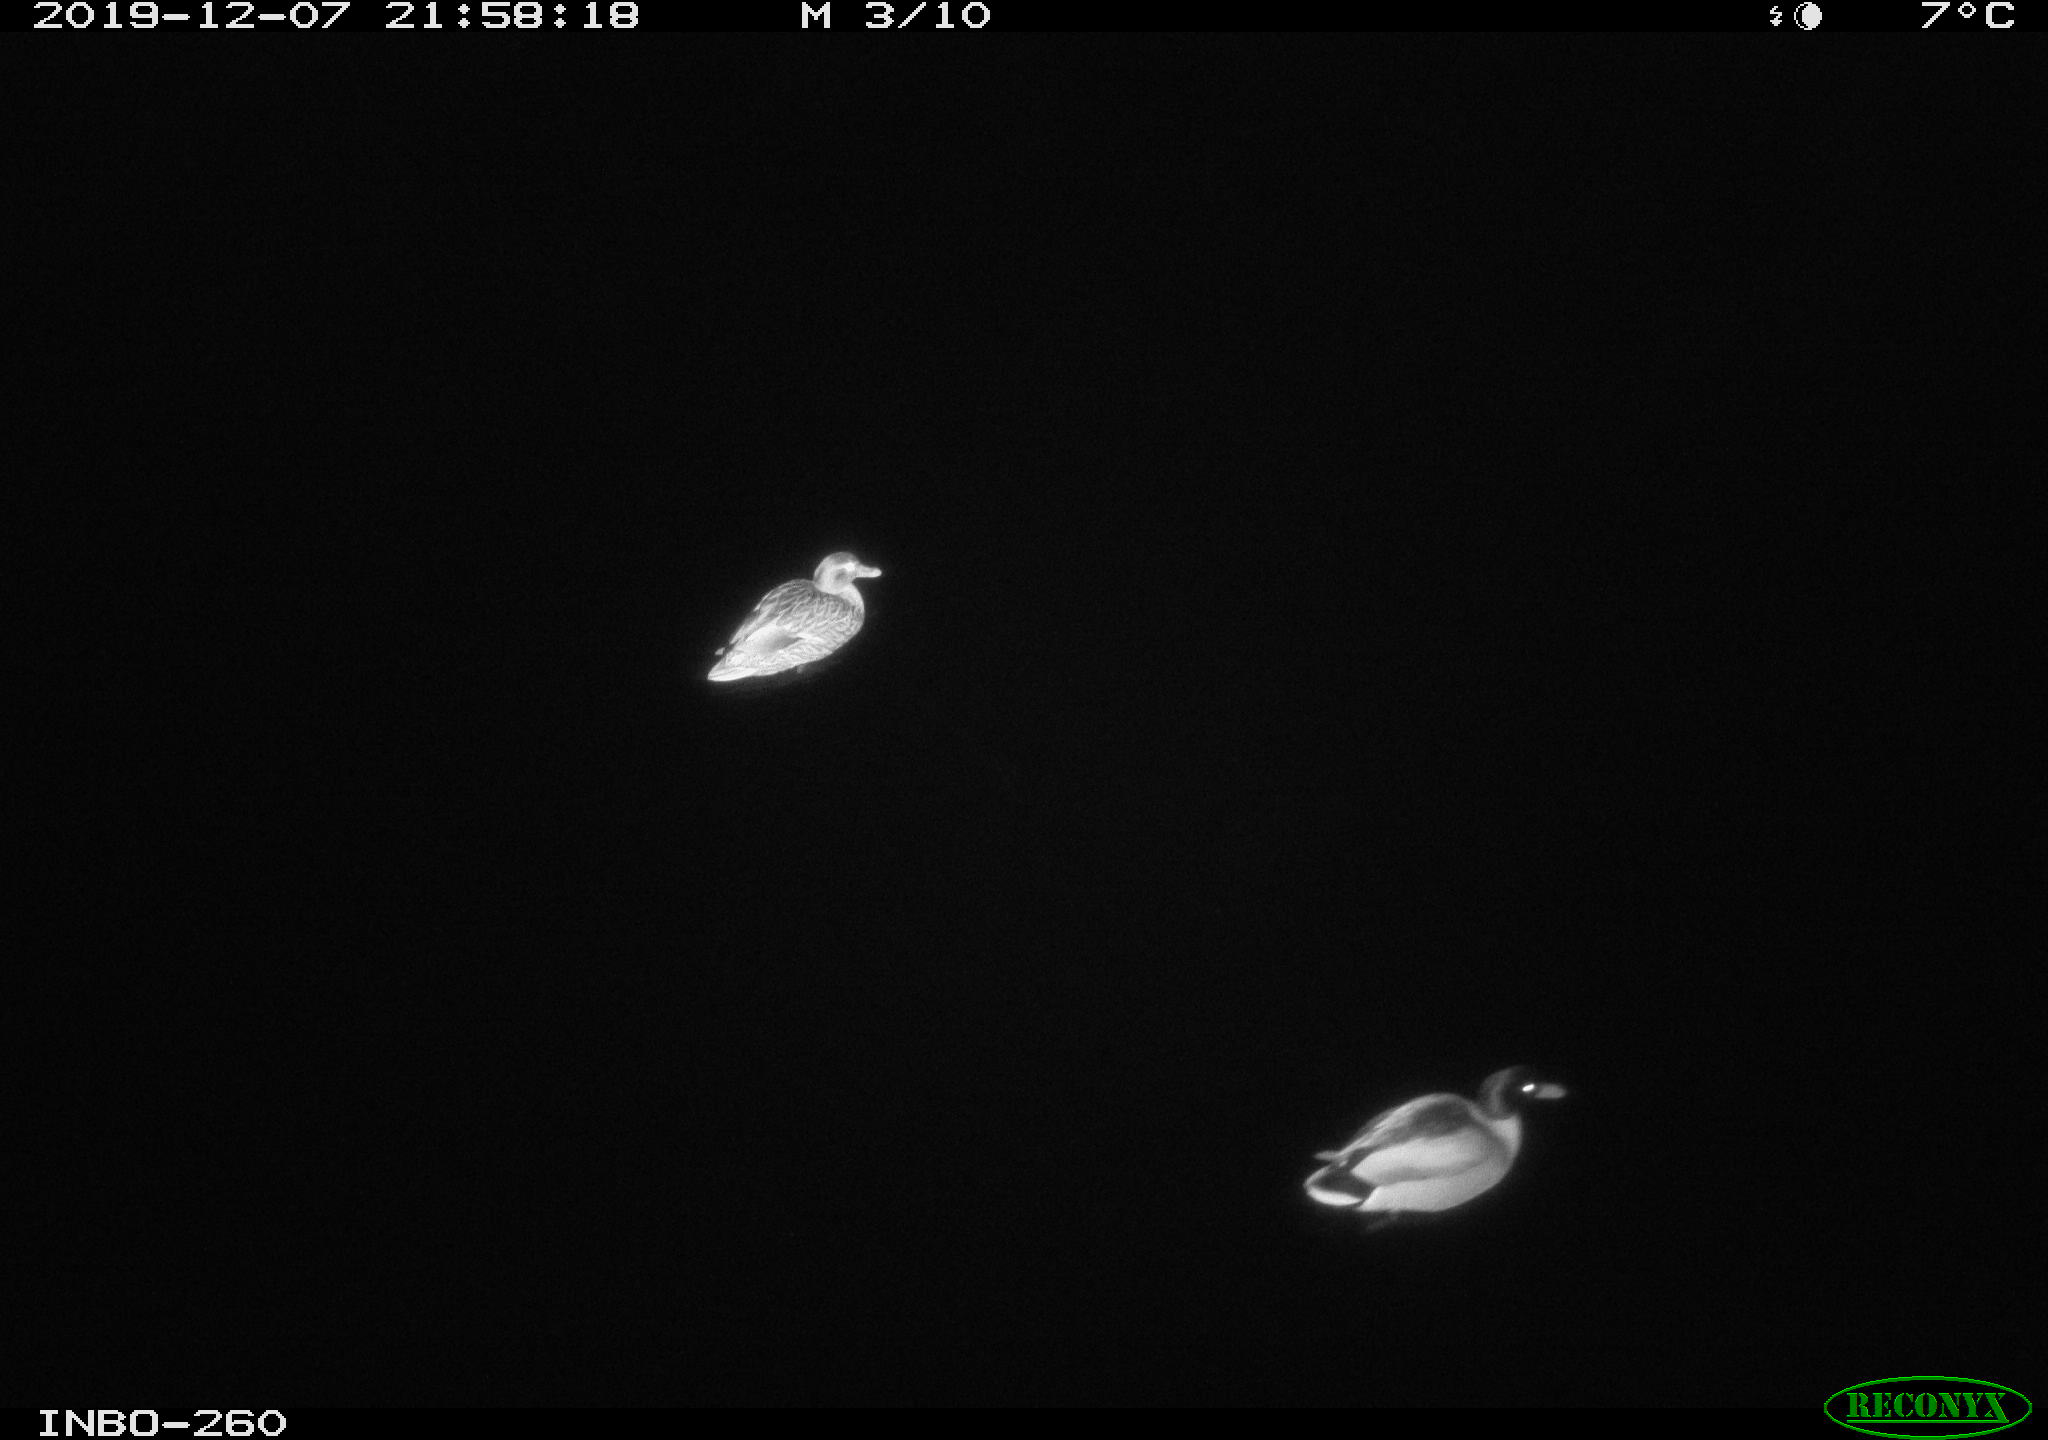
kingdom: Animalia
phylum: Chordata
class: Aves
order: Anseriformes
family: Anatidae
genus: Anas
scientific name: Anas platyrhynchos
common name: Mallard
